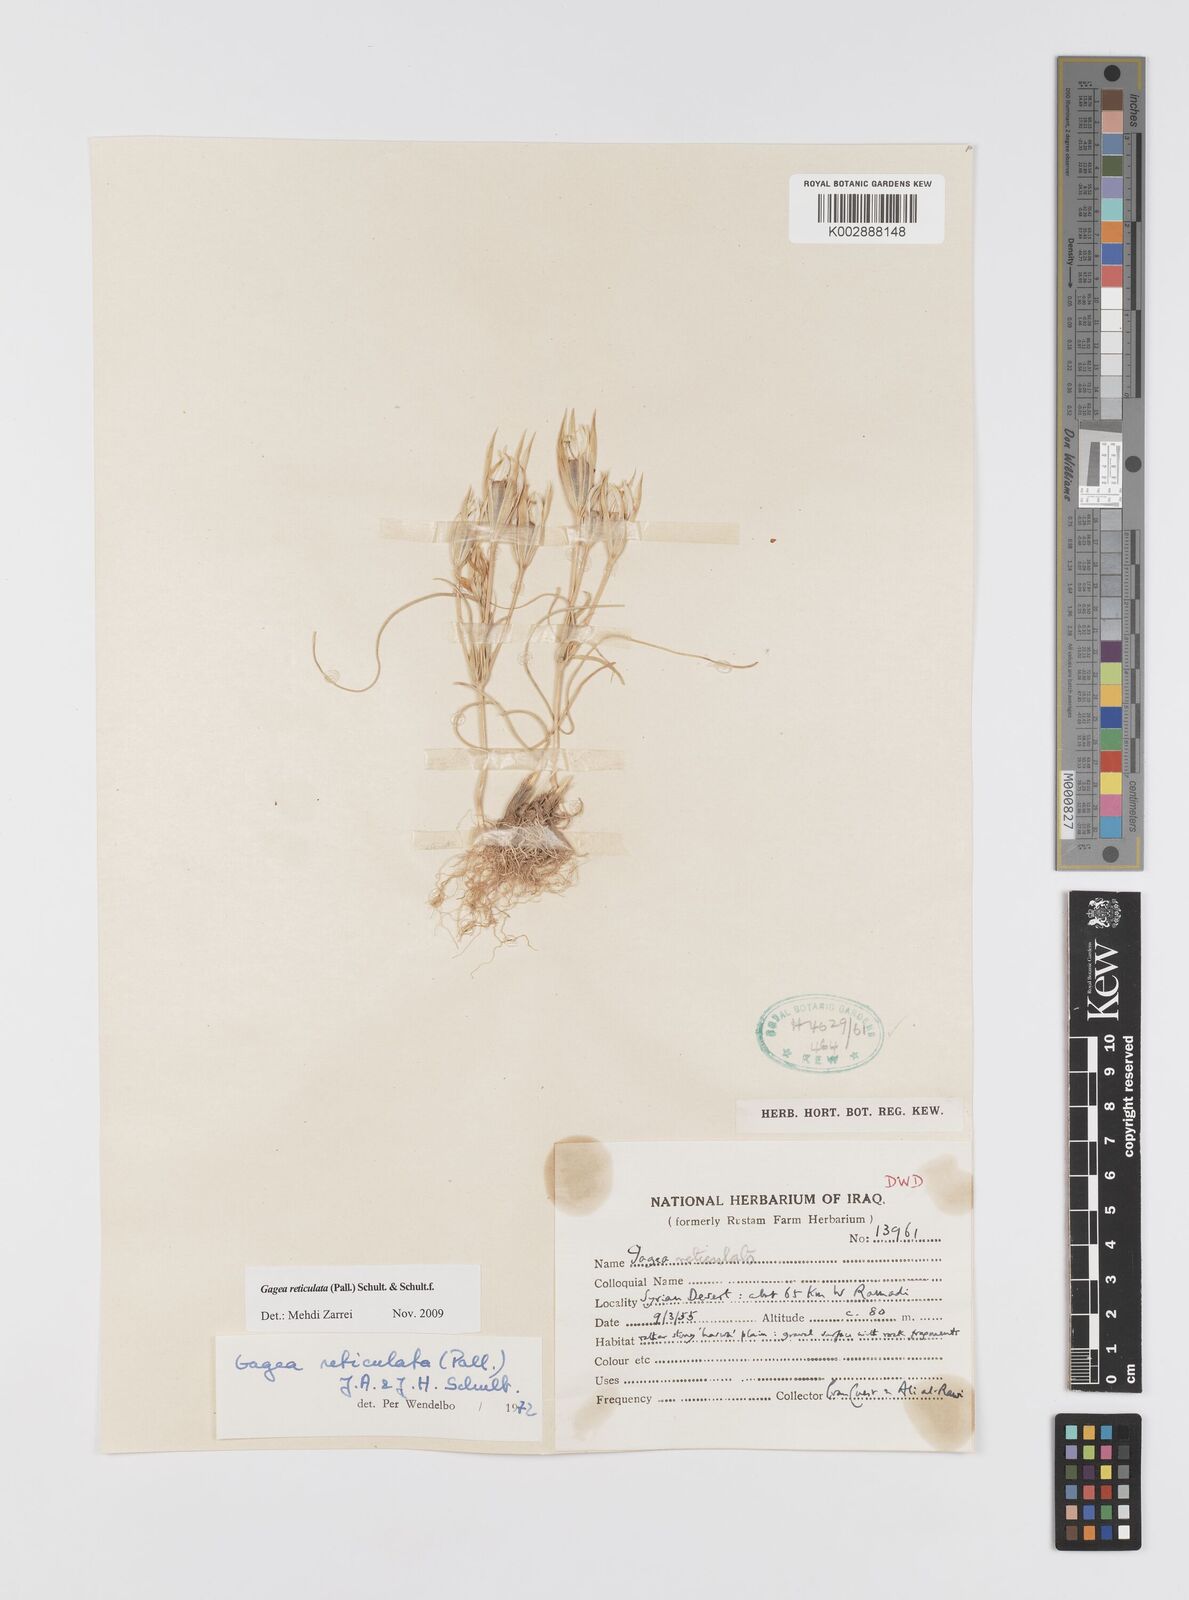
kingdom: Plantae
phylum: Tracheophyta
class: Liliopsida
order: Liliales
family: Liliaceae
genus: Gagea
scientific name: Gagea reticulata
